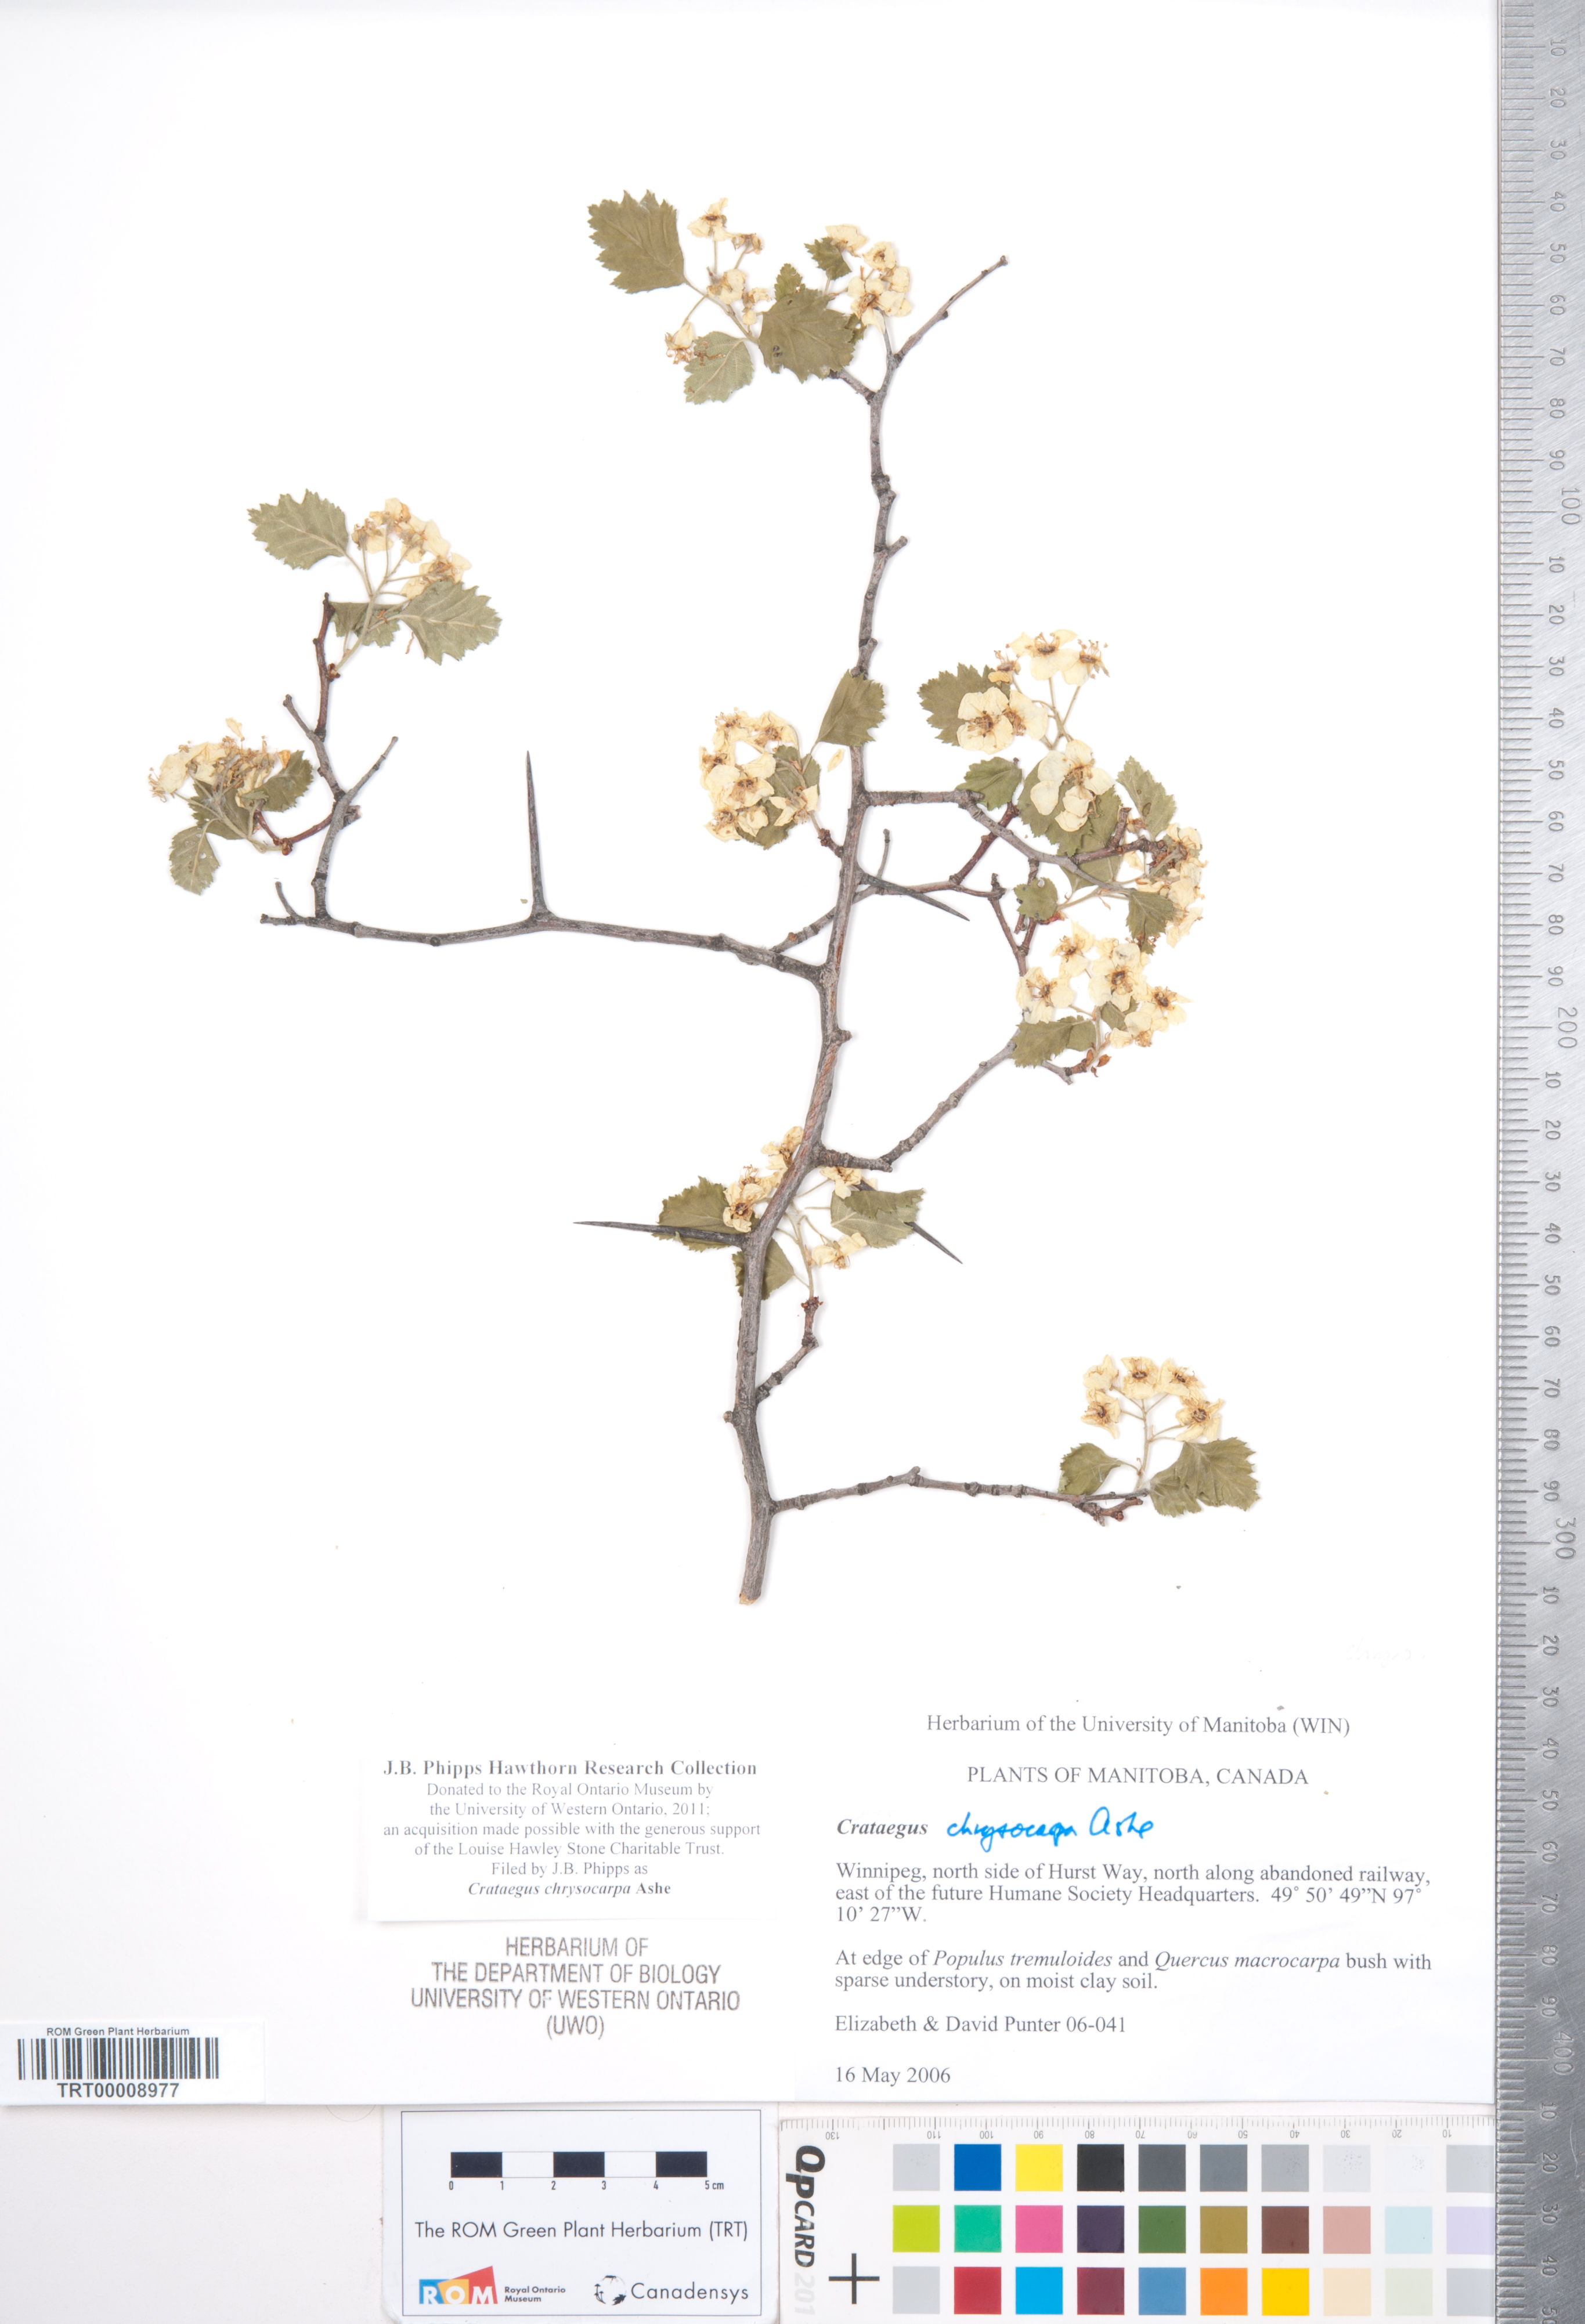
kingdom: Plantae
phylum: Tracheophyta
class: Magnoliopsida
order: Rosales
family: Rosaceae
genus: Crataegus
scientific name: Crataegus chrysocarpa
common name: Fire-berry hawthorn
